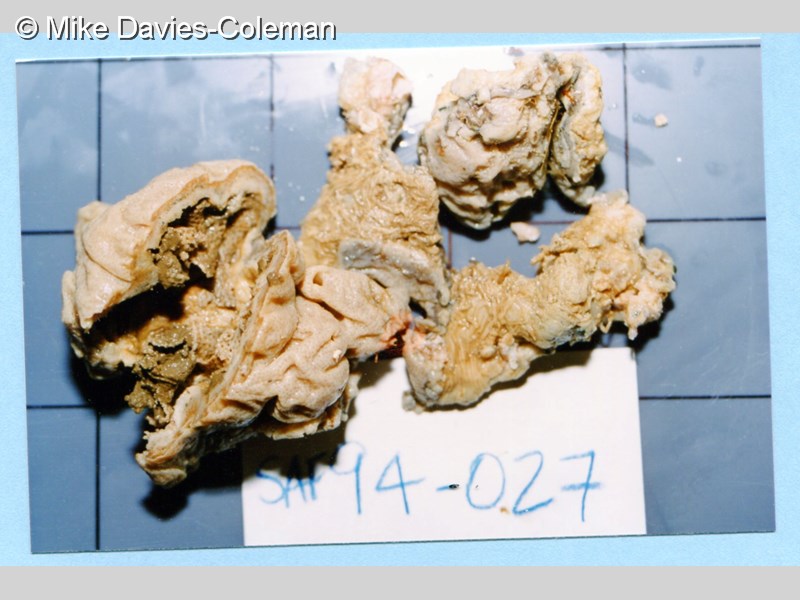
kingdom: Animalia
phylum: Chordata
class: Ascidiacea
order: Aplousobranchia
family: Didemnidae
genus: Lissoclinum
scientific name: Lissoclinum
